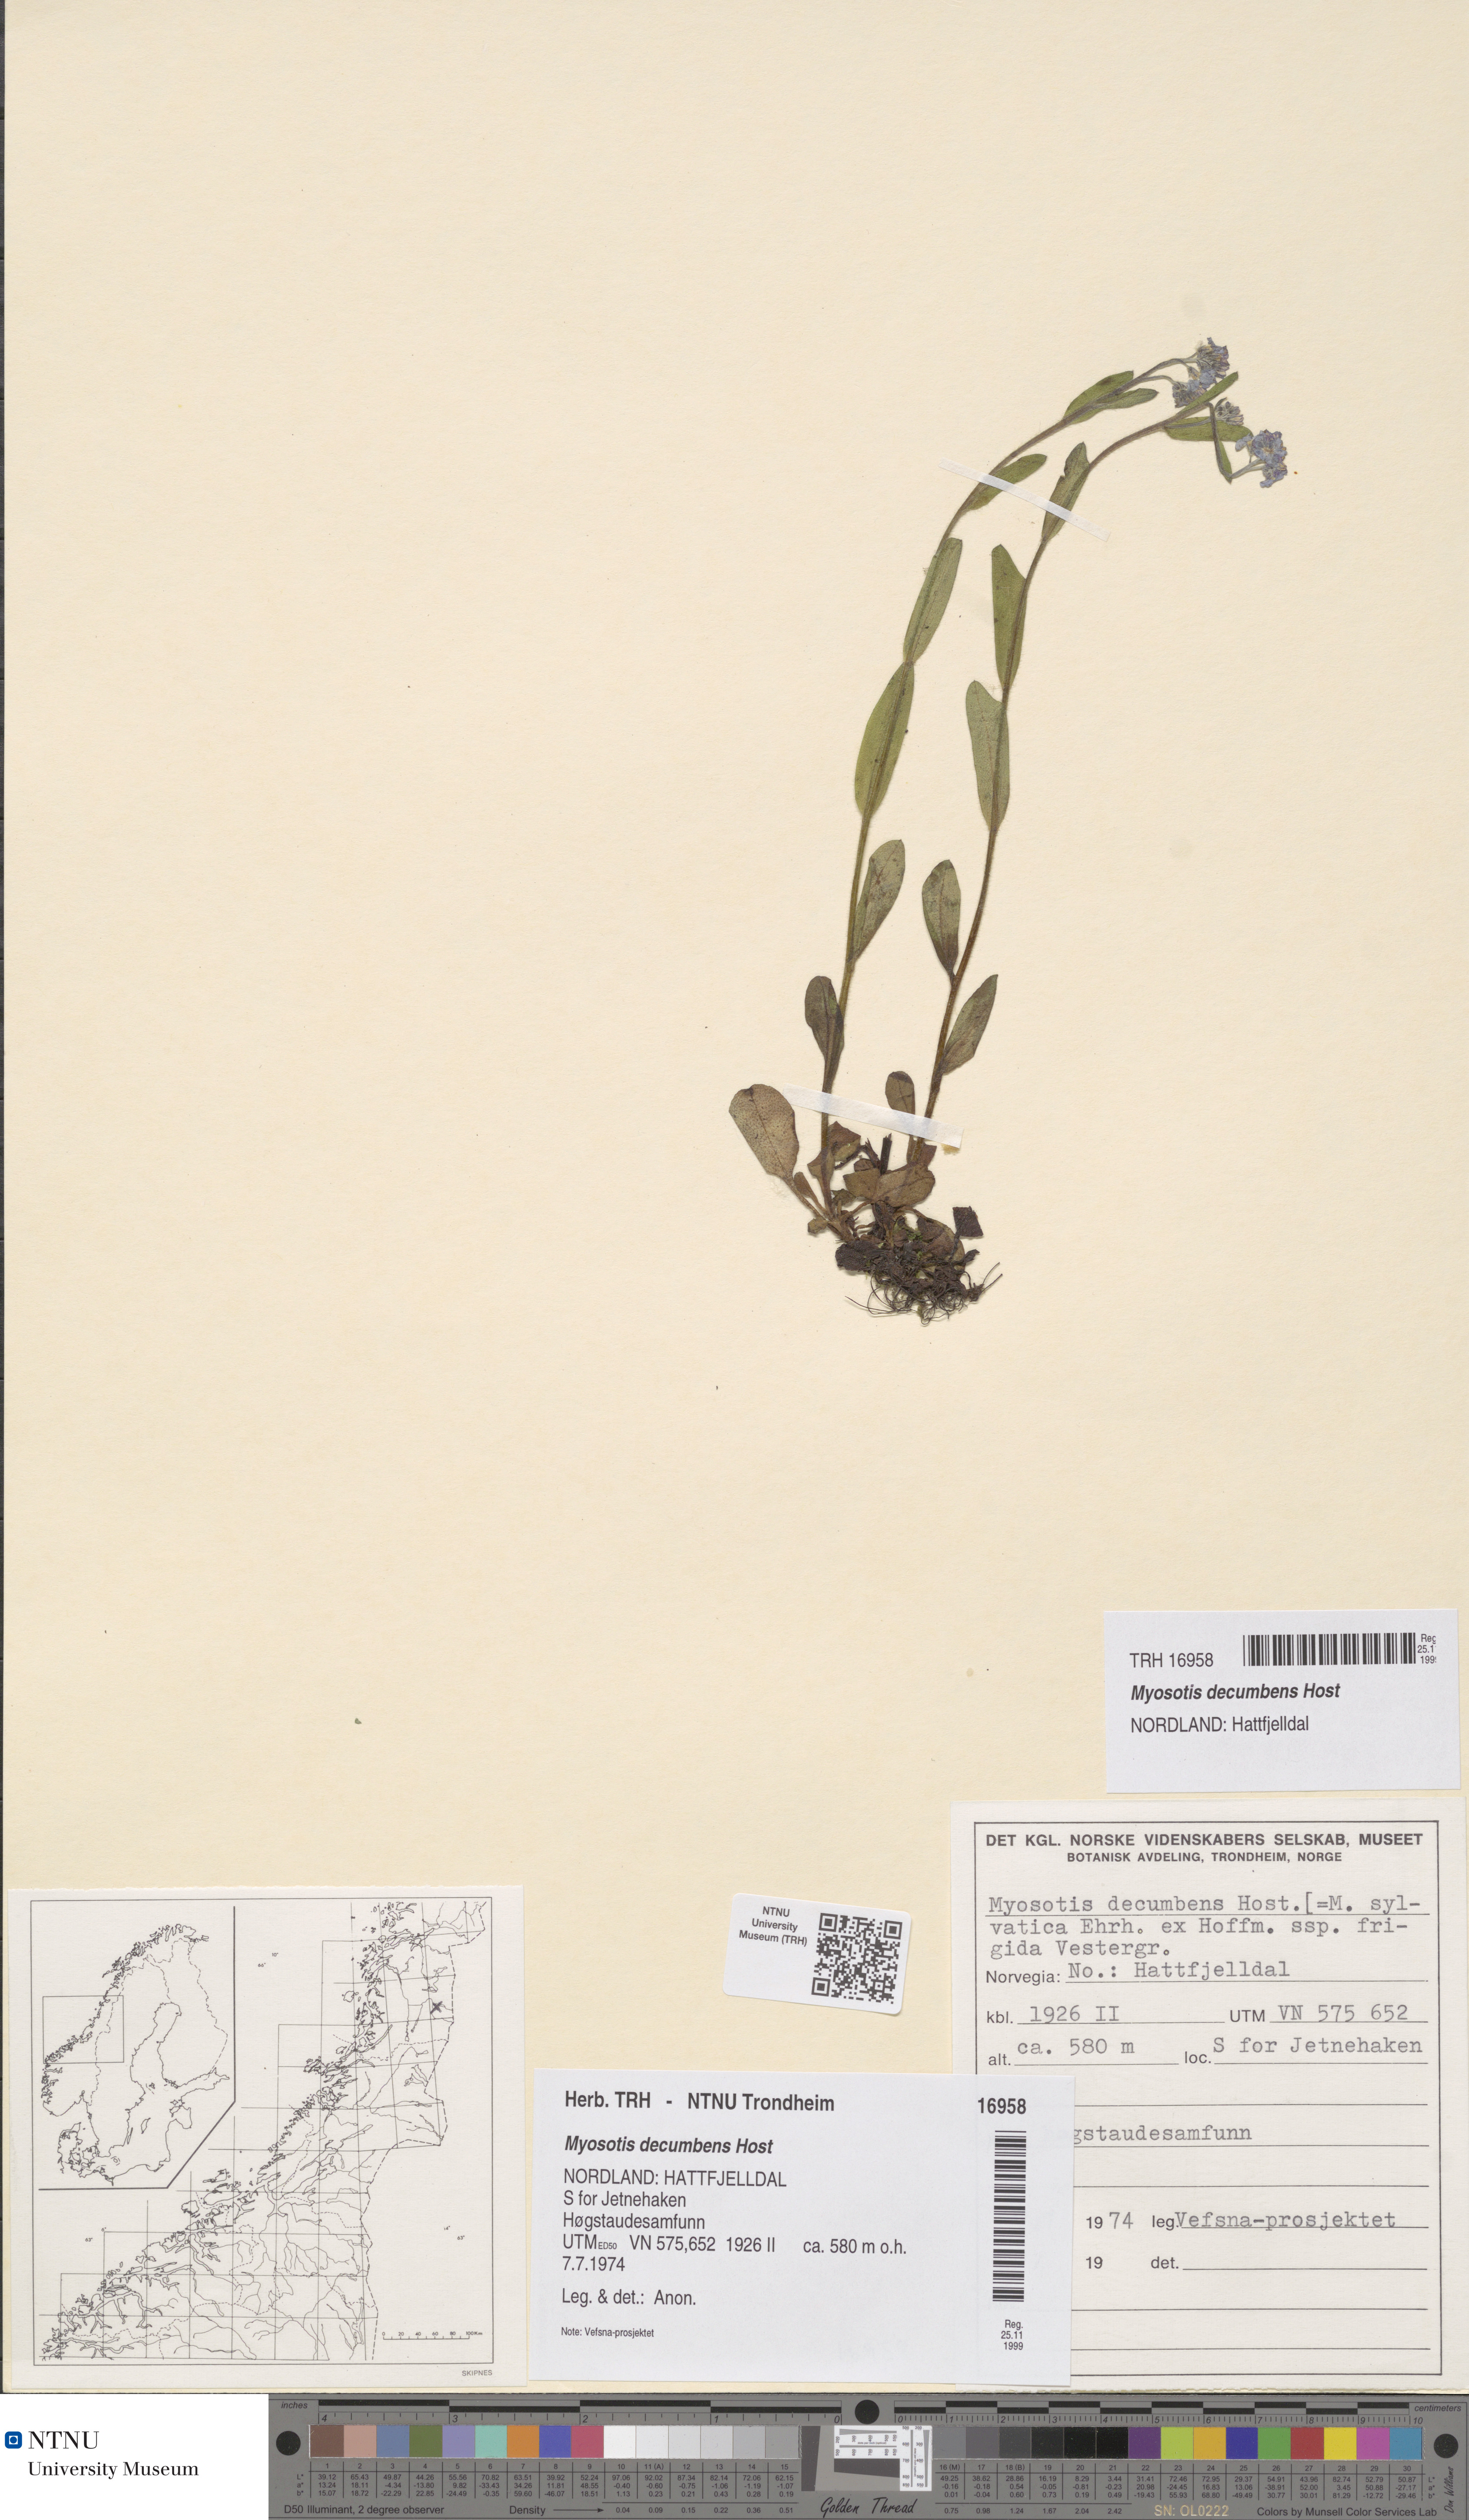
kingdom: Plantae
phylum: Tracheophyta
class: Magnoliopsida
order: Boraginales
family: Boraginaceae
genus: Myosotis
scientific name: Myosotis decumbens
